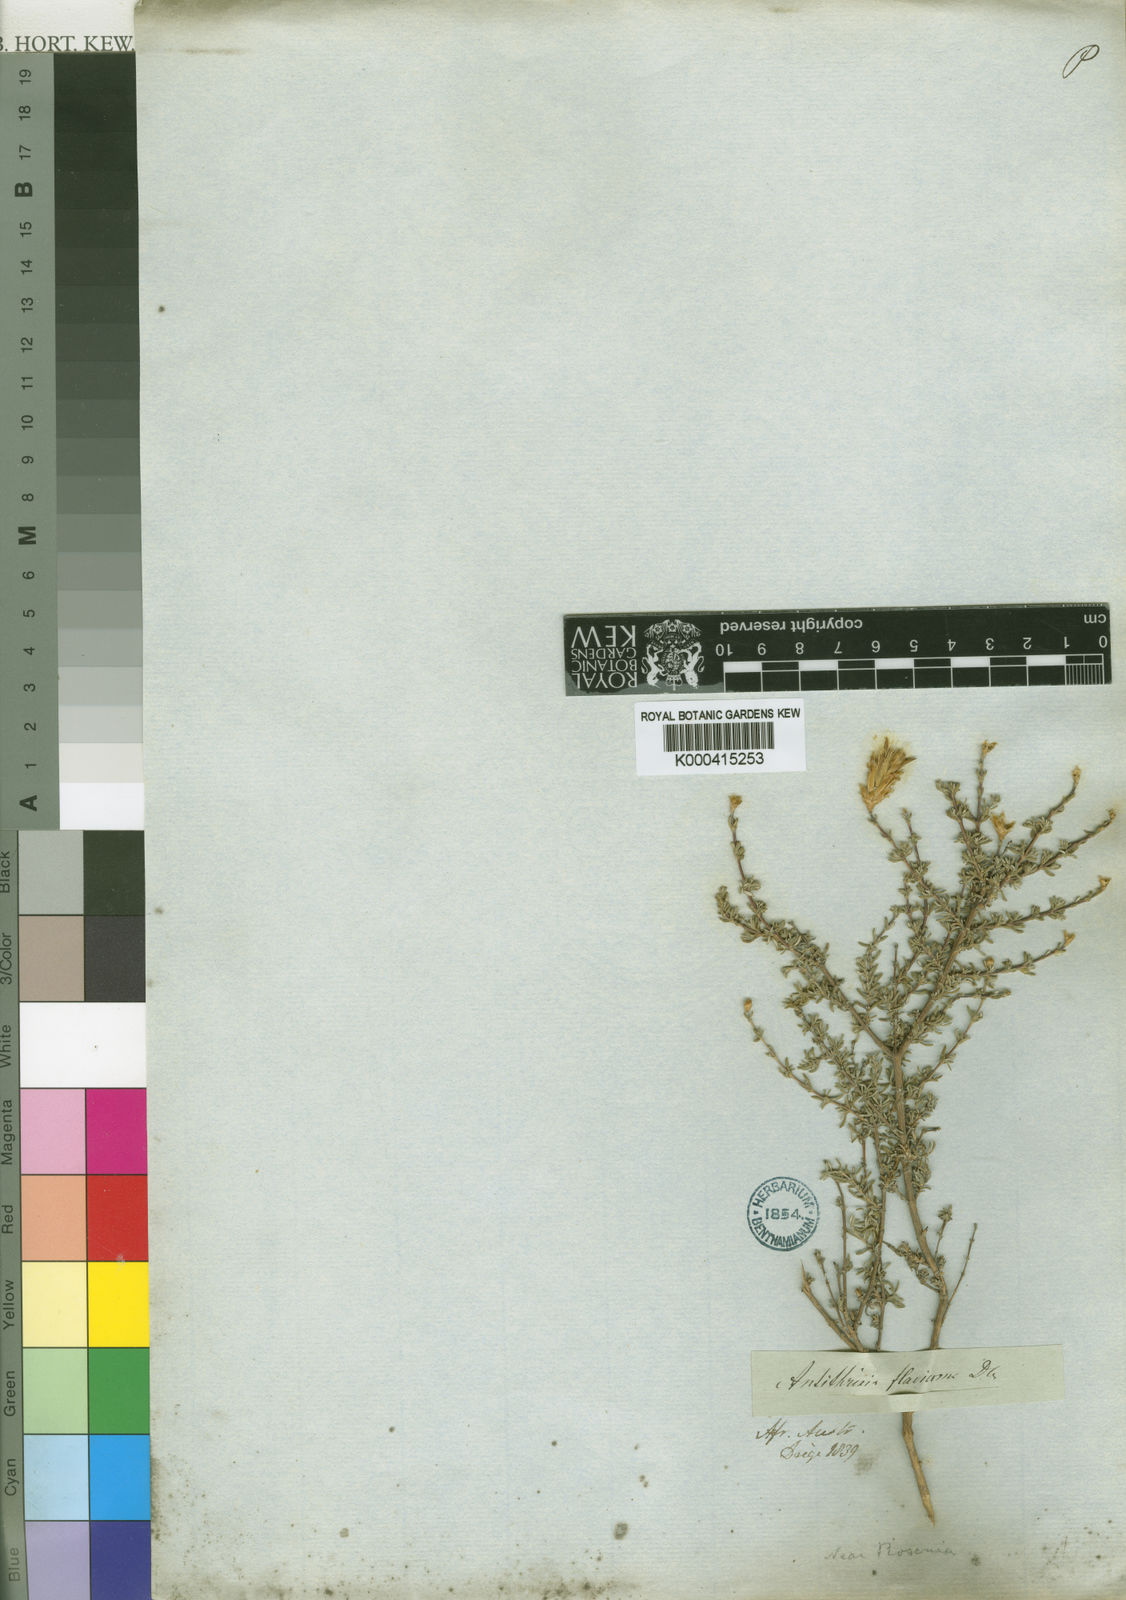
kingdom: Plantae
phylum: Tracheophyta
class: Magnoliopsida
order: Asterales
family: Asteraceae
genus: Oedera
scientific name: Oedera flavicoma
